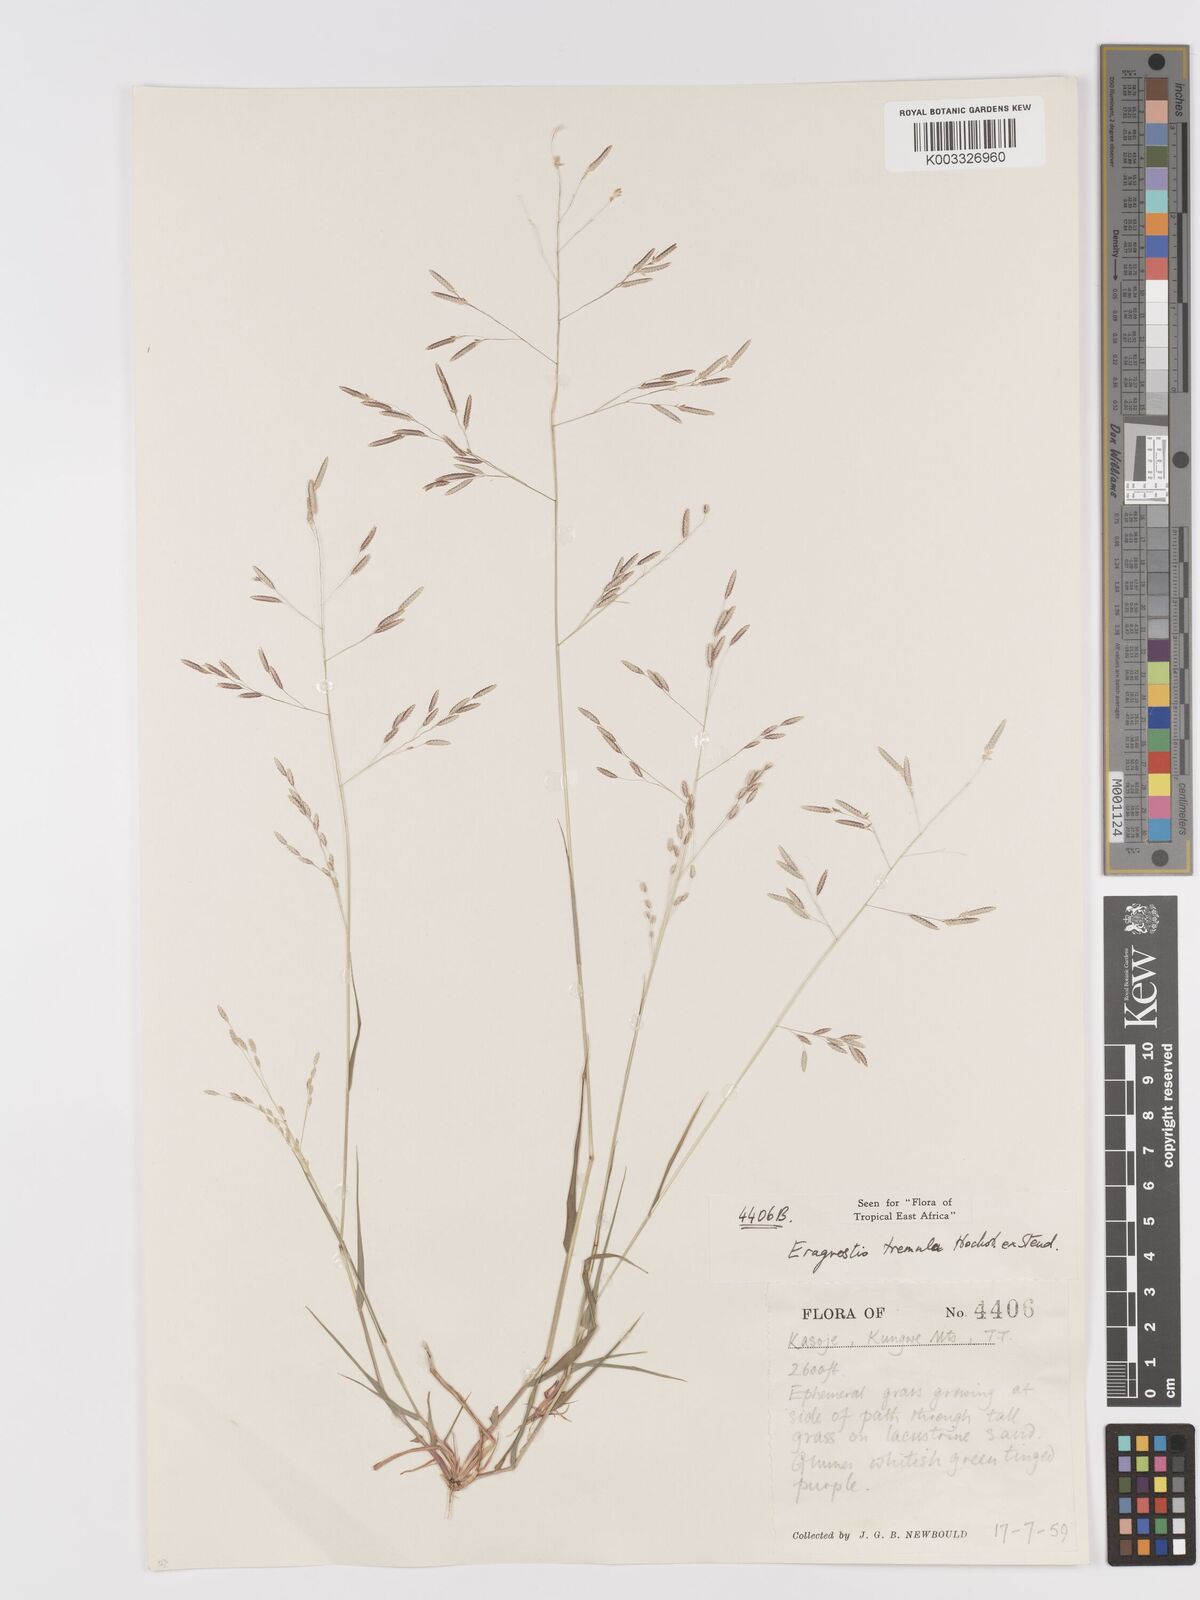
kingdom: Plantae
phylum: Tracheophyta
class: Liliopsida
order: Poales
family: Poaceae
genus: Eragrostis
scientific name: Eragrostis tremula
